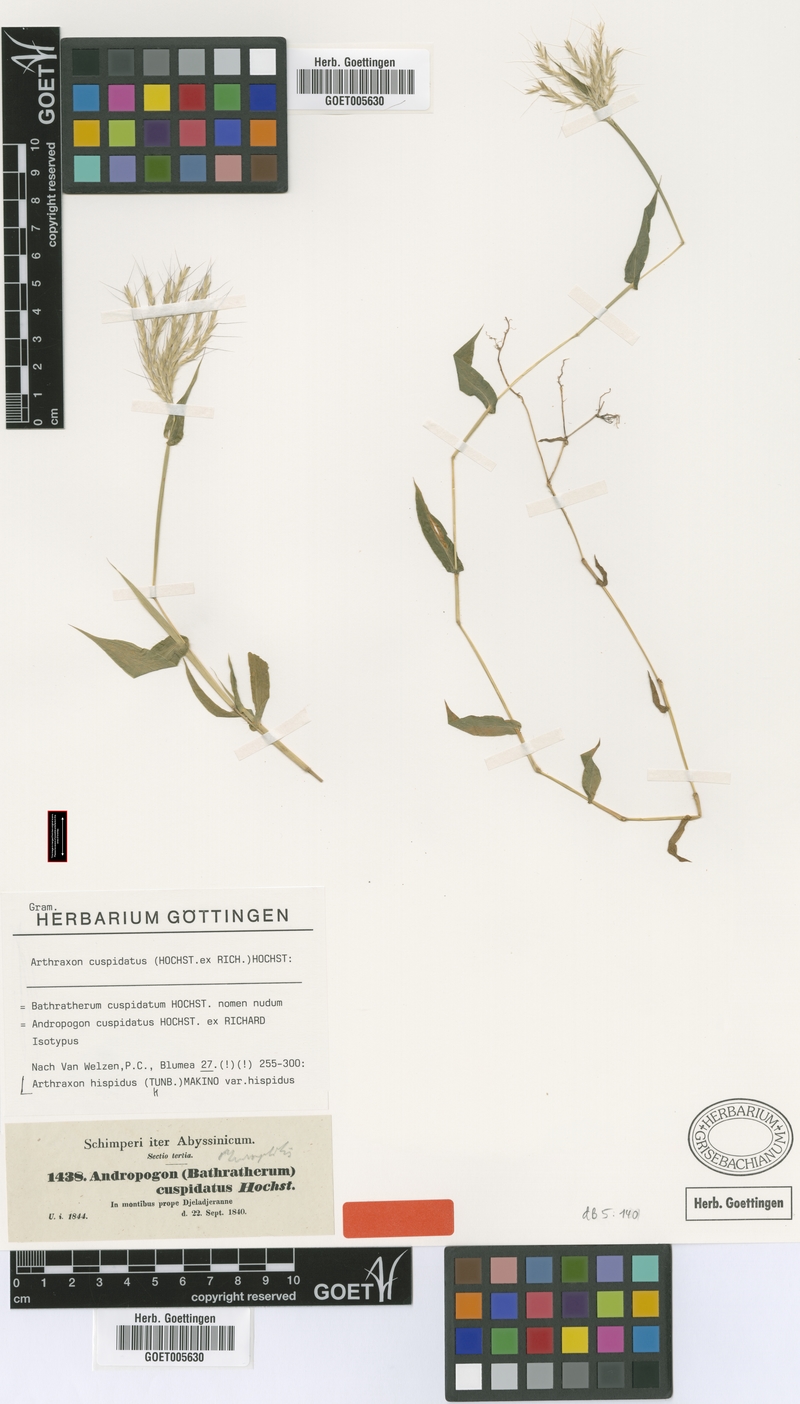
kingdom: Plantae
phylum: Tracheophyta
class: Liliopsida
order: Poales
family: Poaceae
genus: Arthraxon
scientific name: Arthraxon hispidus
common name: Small carpgrass
